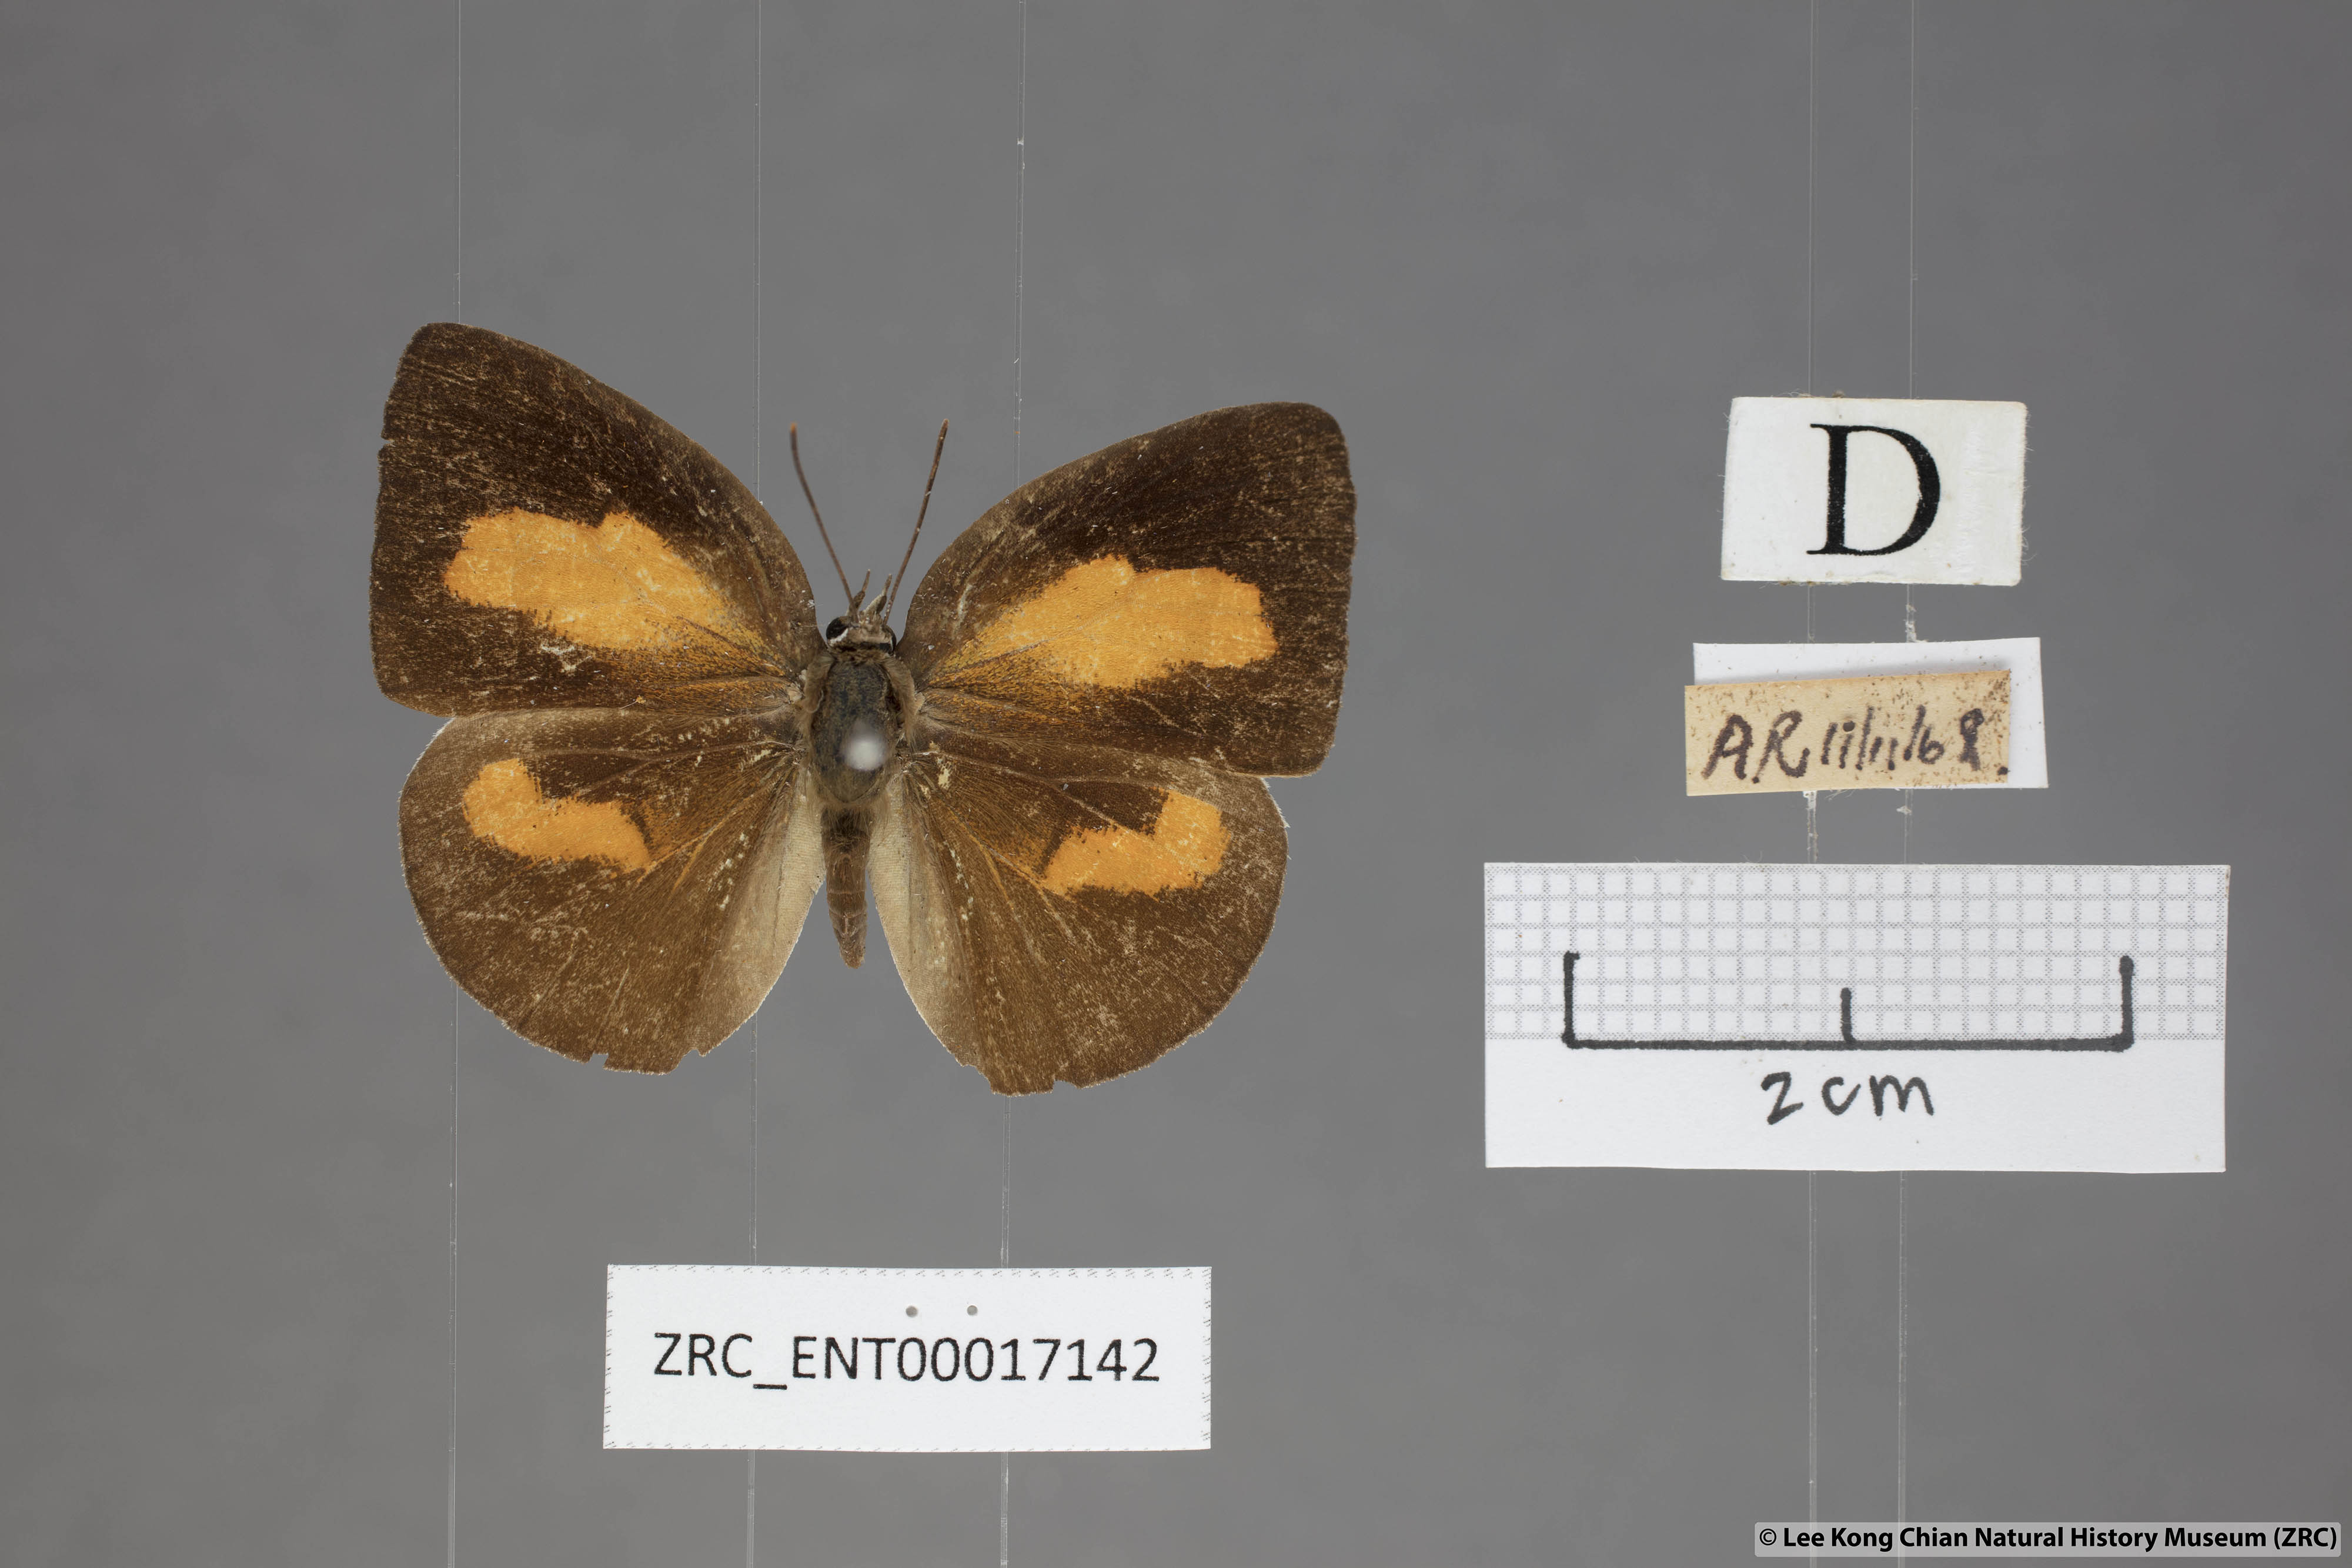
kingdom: Animalia
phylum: Arthropoda
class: Insecta
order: Lepidoptera
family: Lycaenidae
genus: Curetis
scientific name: Curetis insularis
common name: Narrow-banded sunbeam
